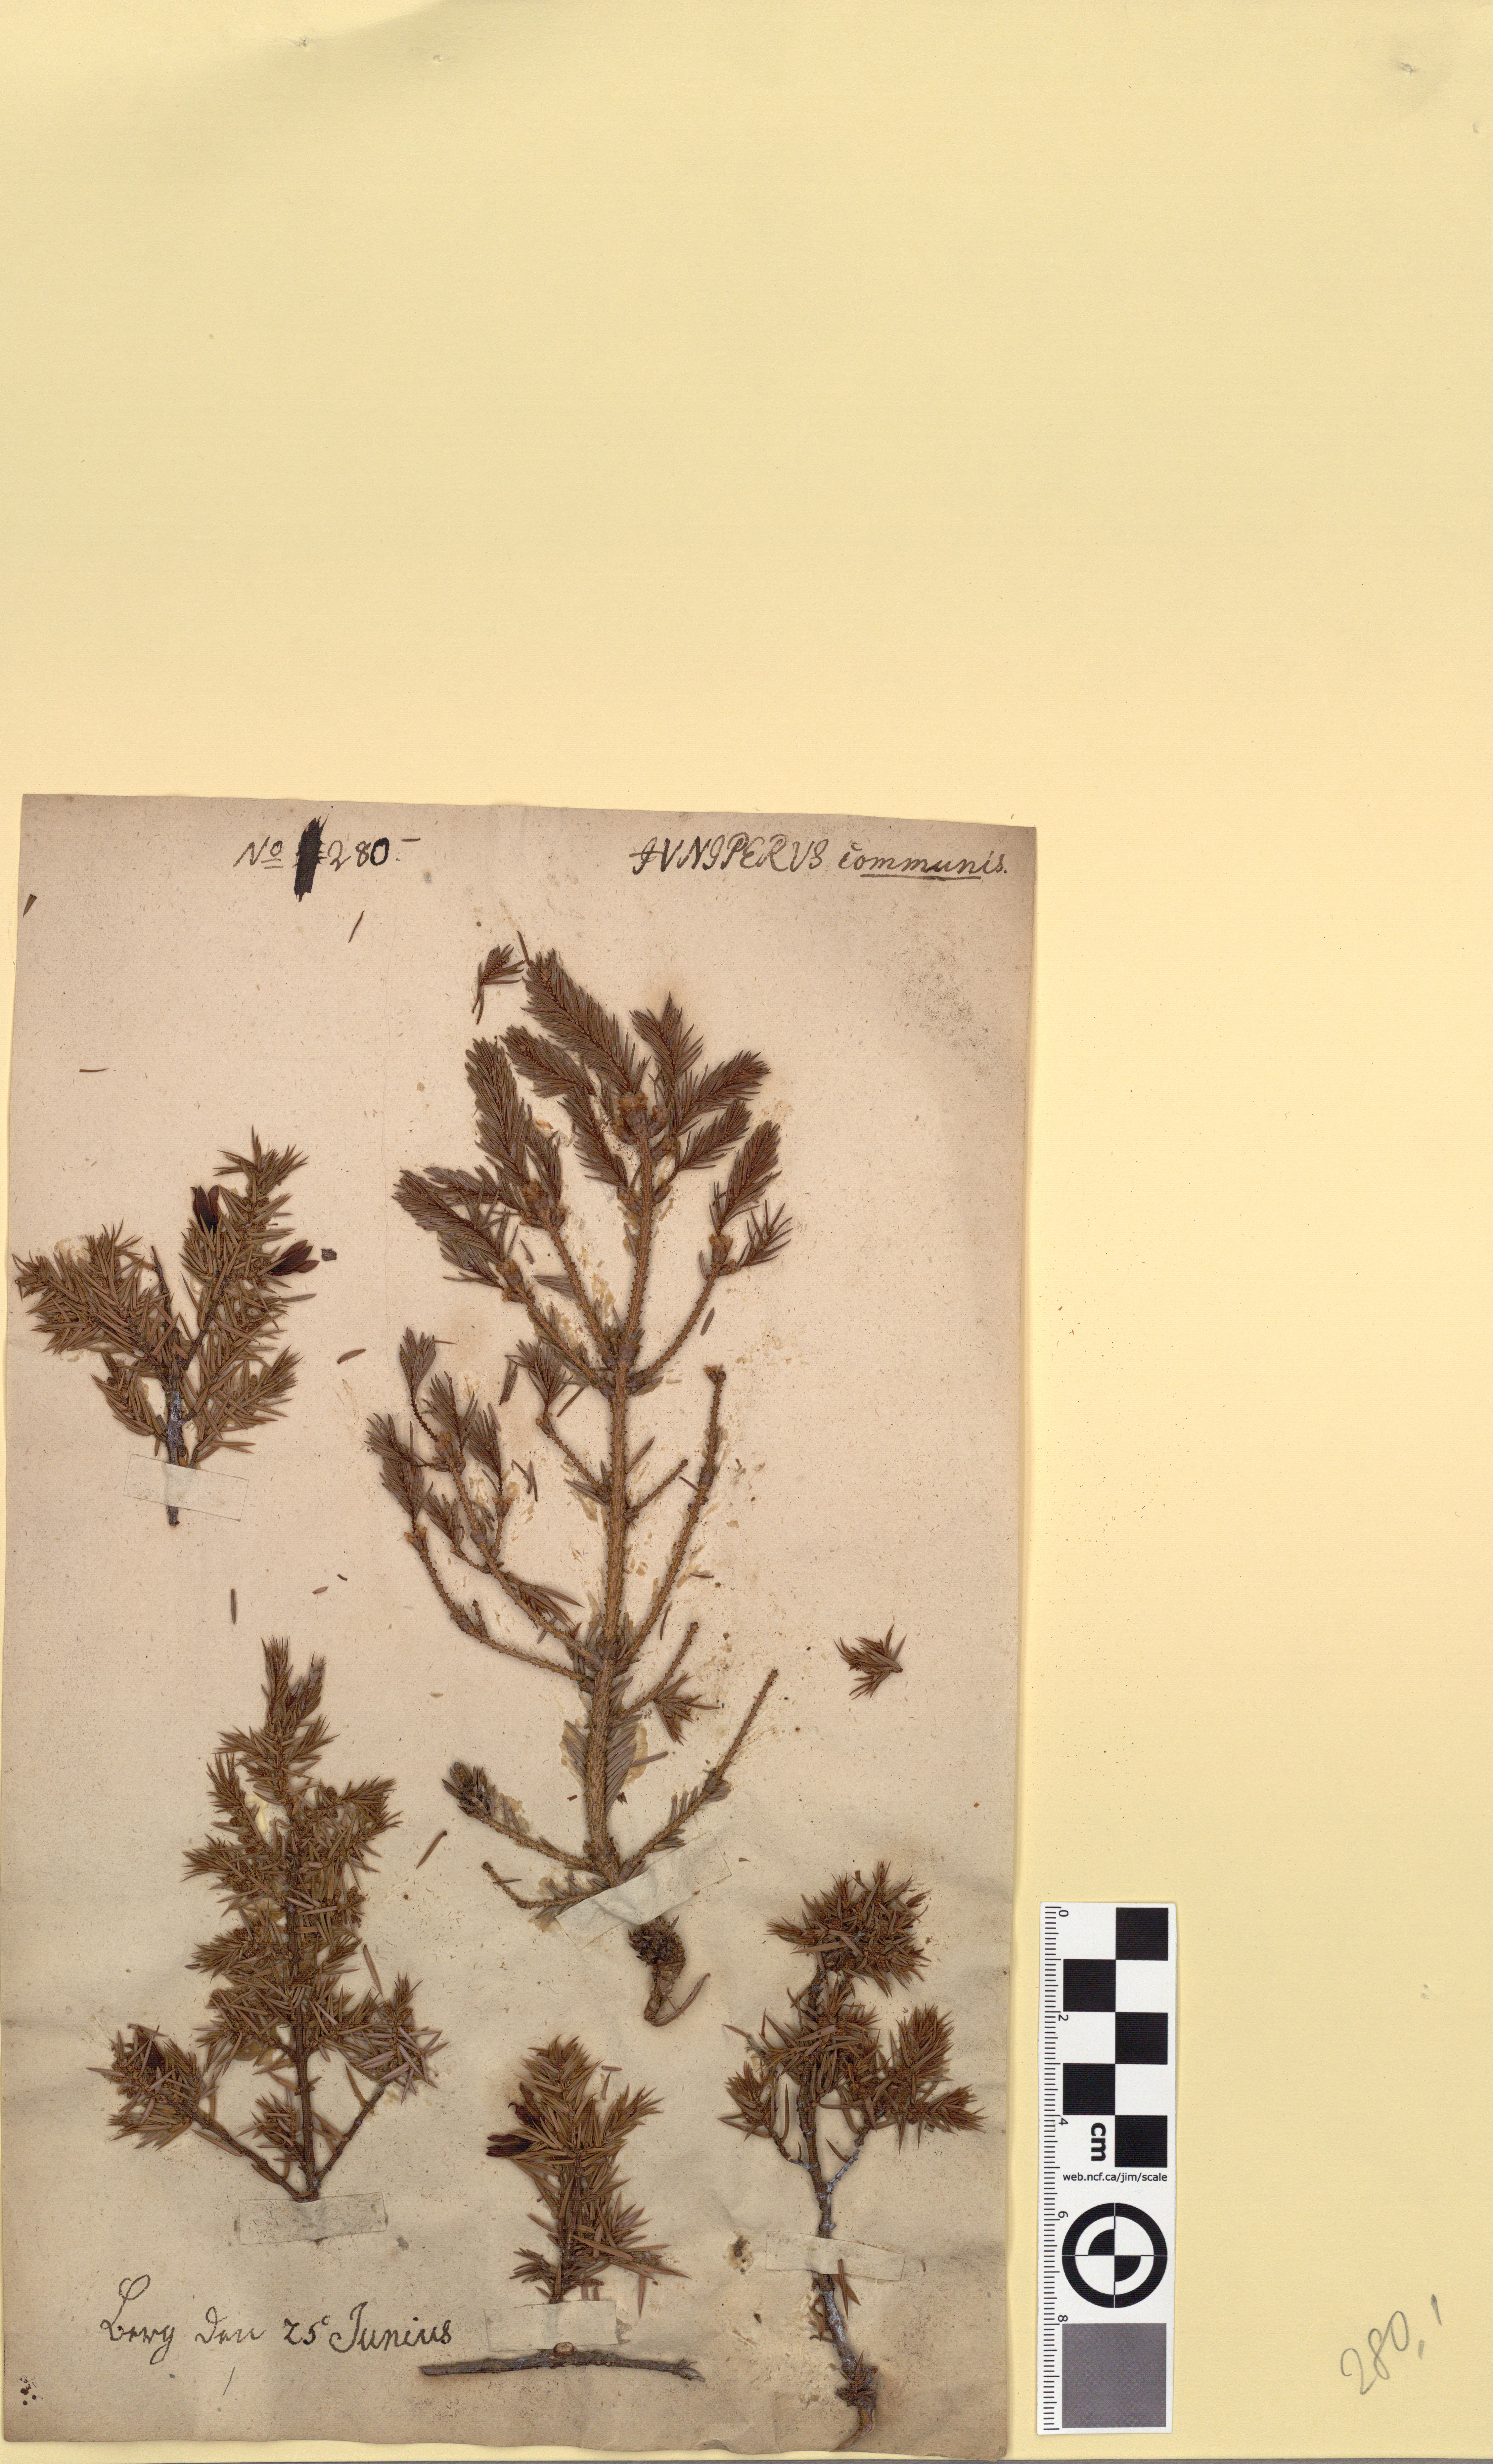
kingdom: Plantae
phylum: Tracheophyta
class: Pinopsida
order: Pinales
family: Cupressaceae
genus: Juniperus
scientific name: Juniperus communis
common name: Common juniper
